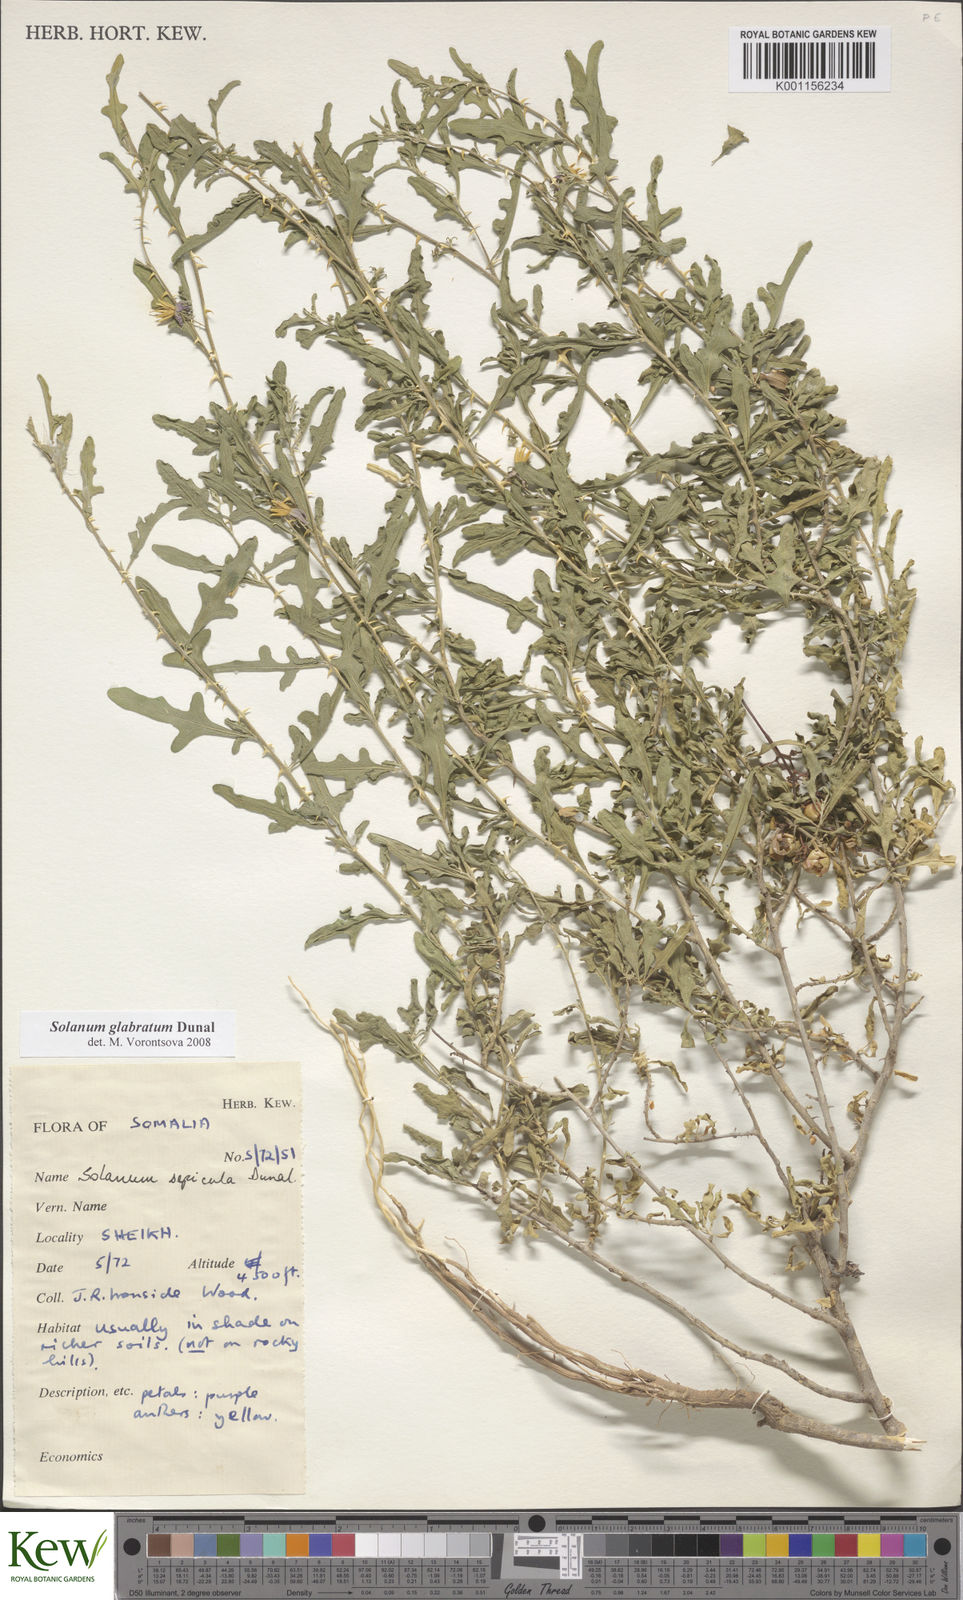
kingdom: Plantae
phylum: Tracheophyta
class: Magnoliopsida
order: Solanales
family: Solanaceae
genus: Solanum
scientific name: Solanum glabratum
